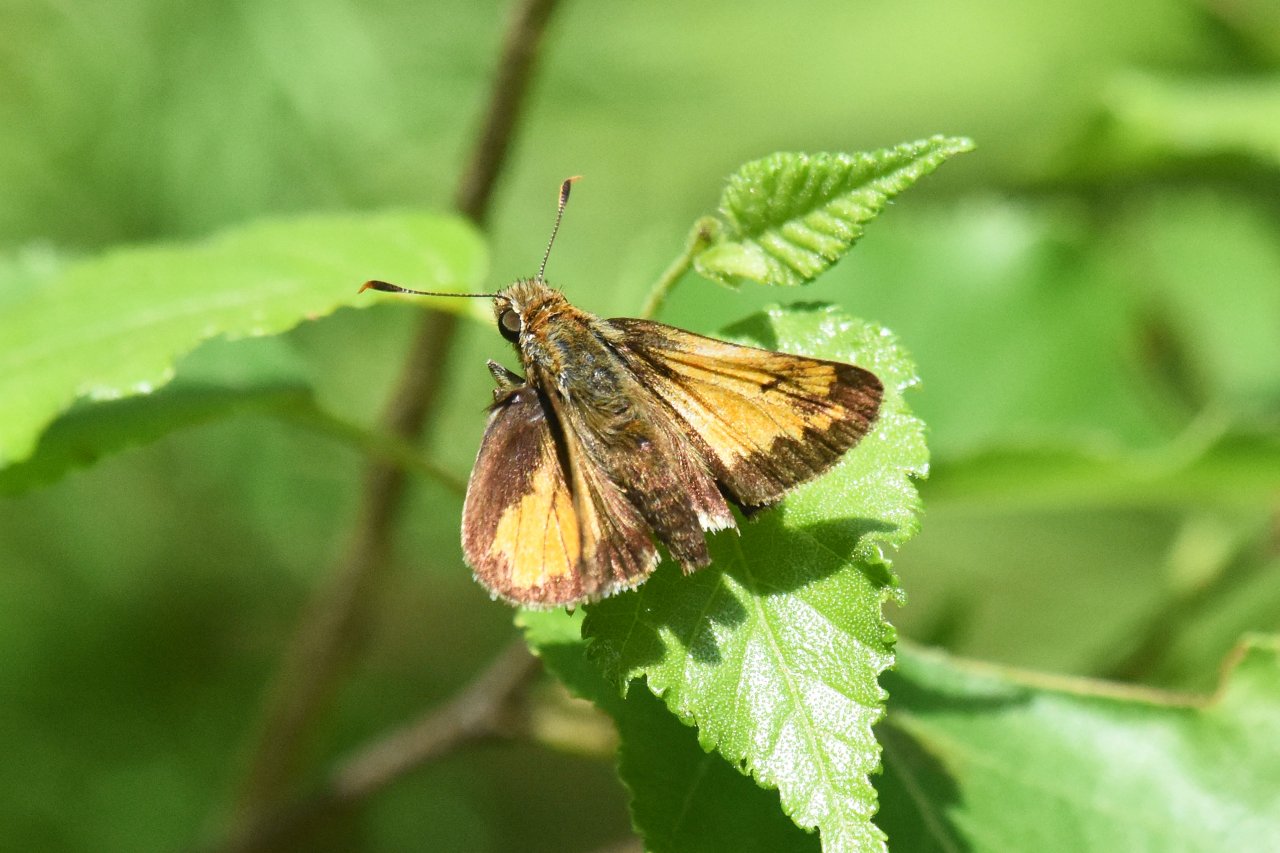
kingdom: Animalia
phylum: Arthropoda
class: Insecta
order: Lepidoptera
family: Hesperiidae
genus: Lon
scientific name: Lon hobomok
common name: Hobomok Skipper
